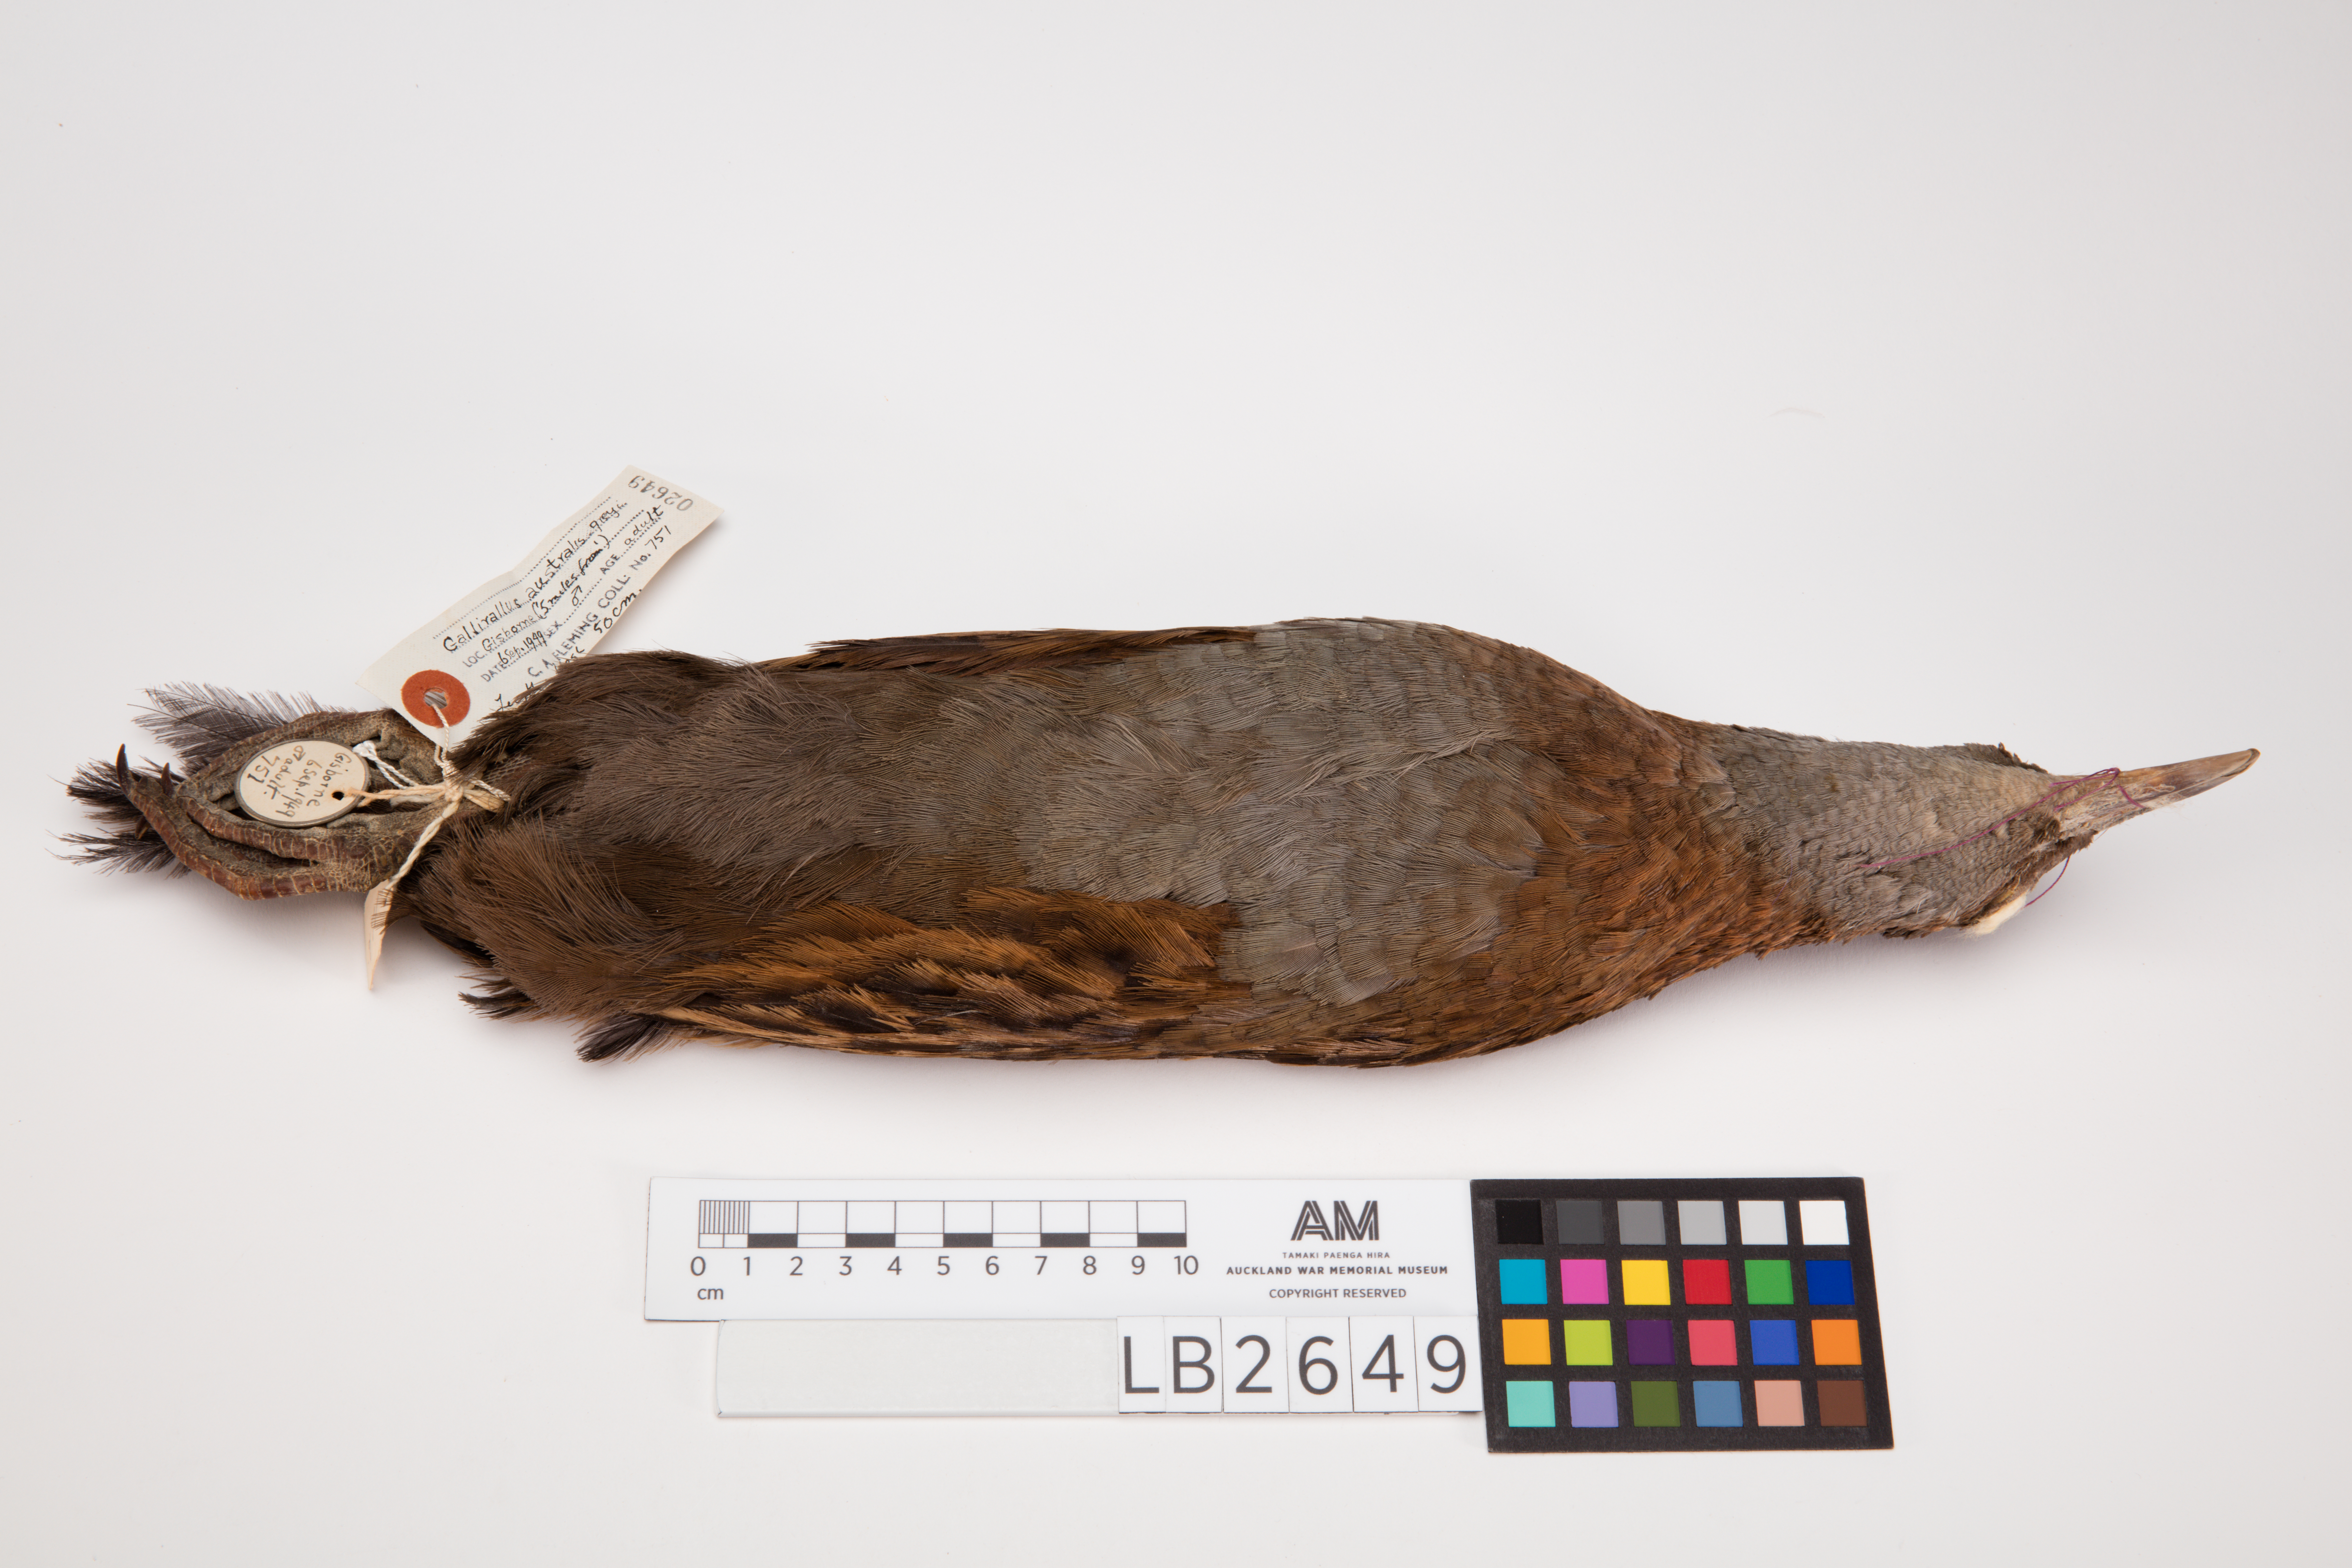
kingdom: Animalia
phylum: Chordata
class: Aves
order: Gruiformes
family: Rallidae
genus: Gallirallus
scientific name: Gallirallus australis
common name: Weka
